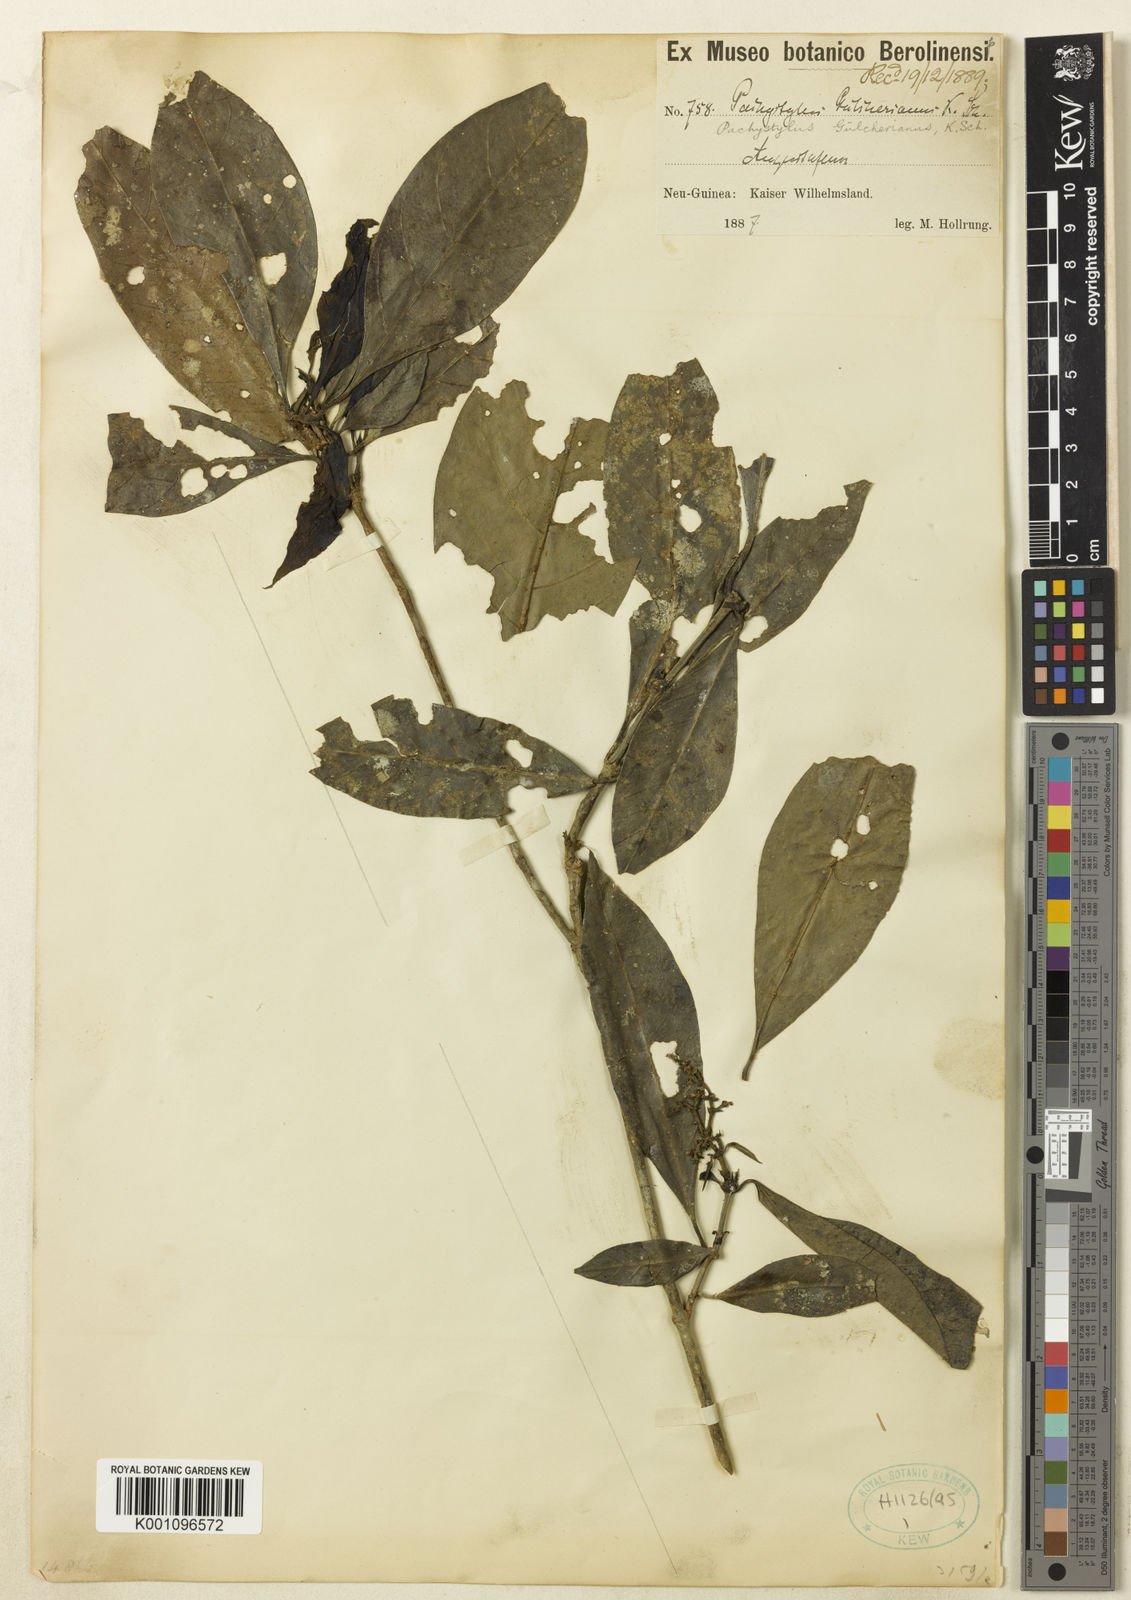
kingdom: Plantae
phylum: Tracheophyta
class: Magnoliopsida
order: Gentianales
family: Rubiaceae
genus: Pachystylus
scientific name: Pachystylus zippelianus
